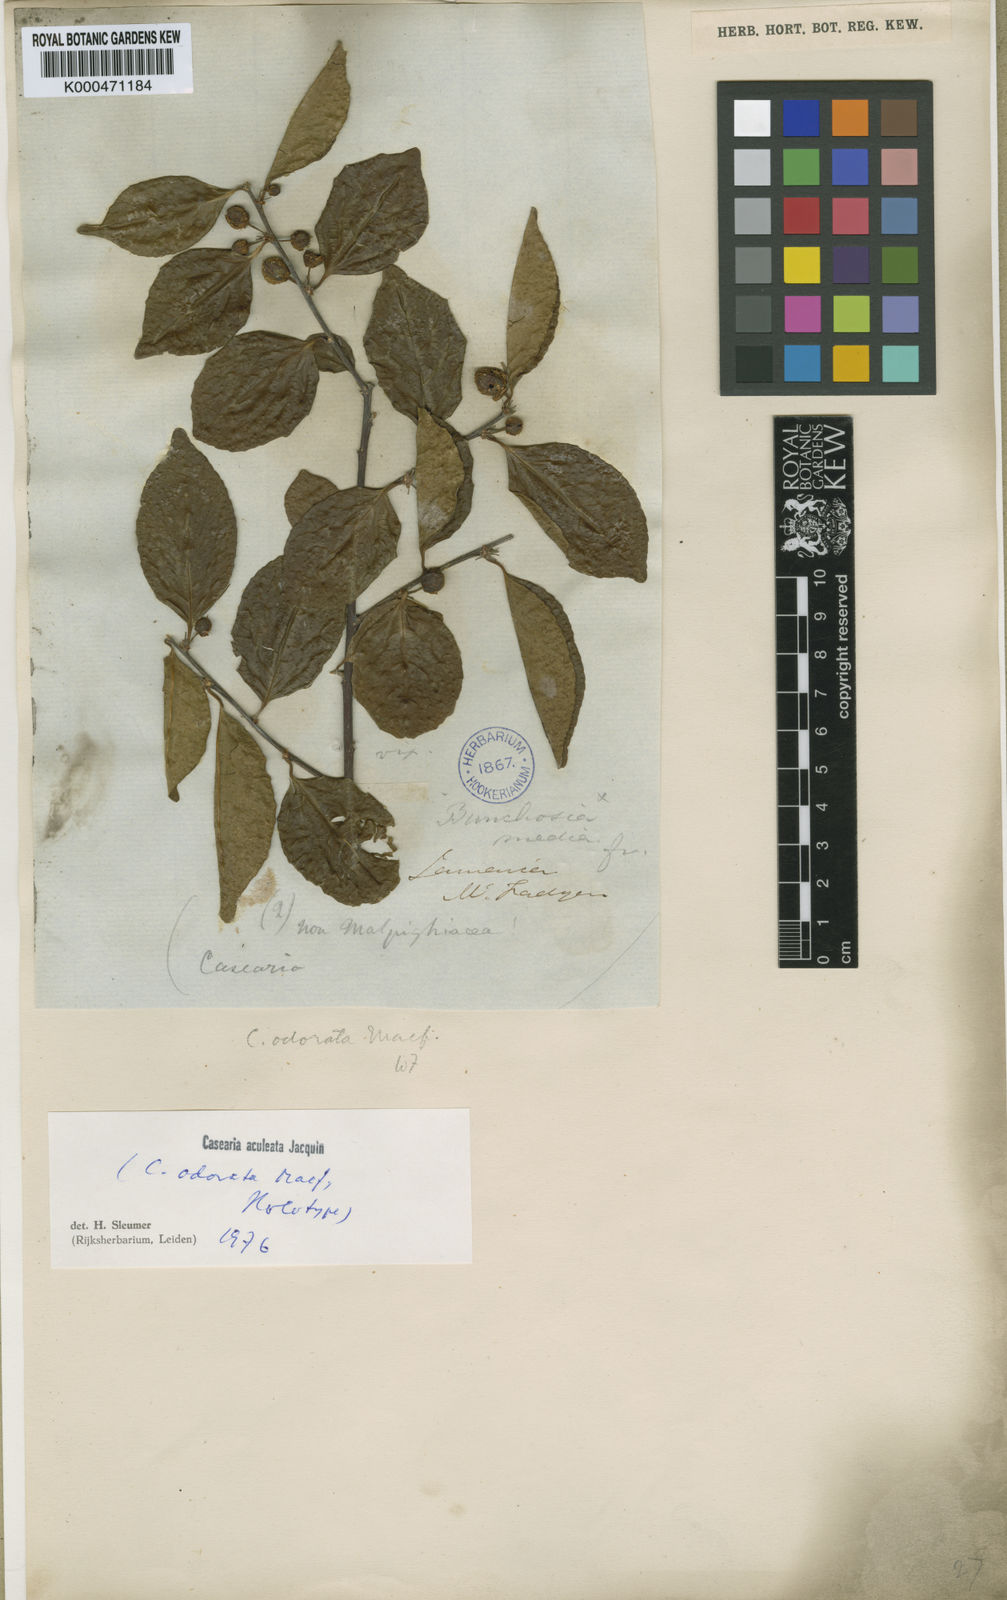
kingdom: Plantae
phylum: Tracheophyta
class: Magnoliopsida
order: Malpighiales
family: Salicaceae
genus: Casearia
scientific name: Casearia aculeata
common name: Cockspur
